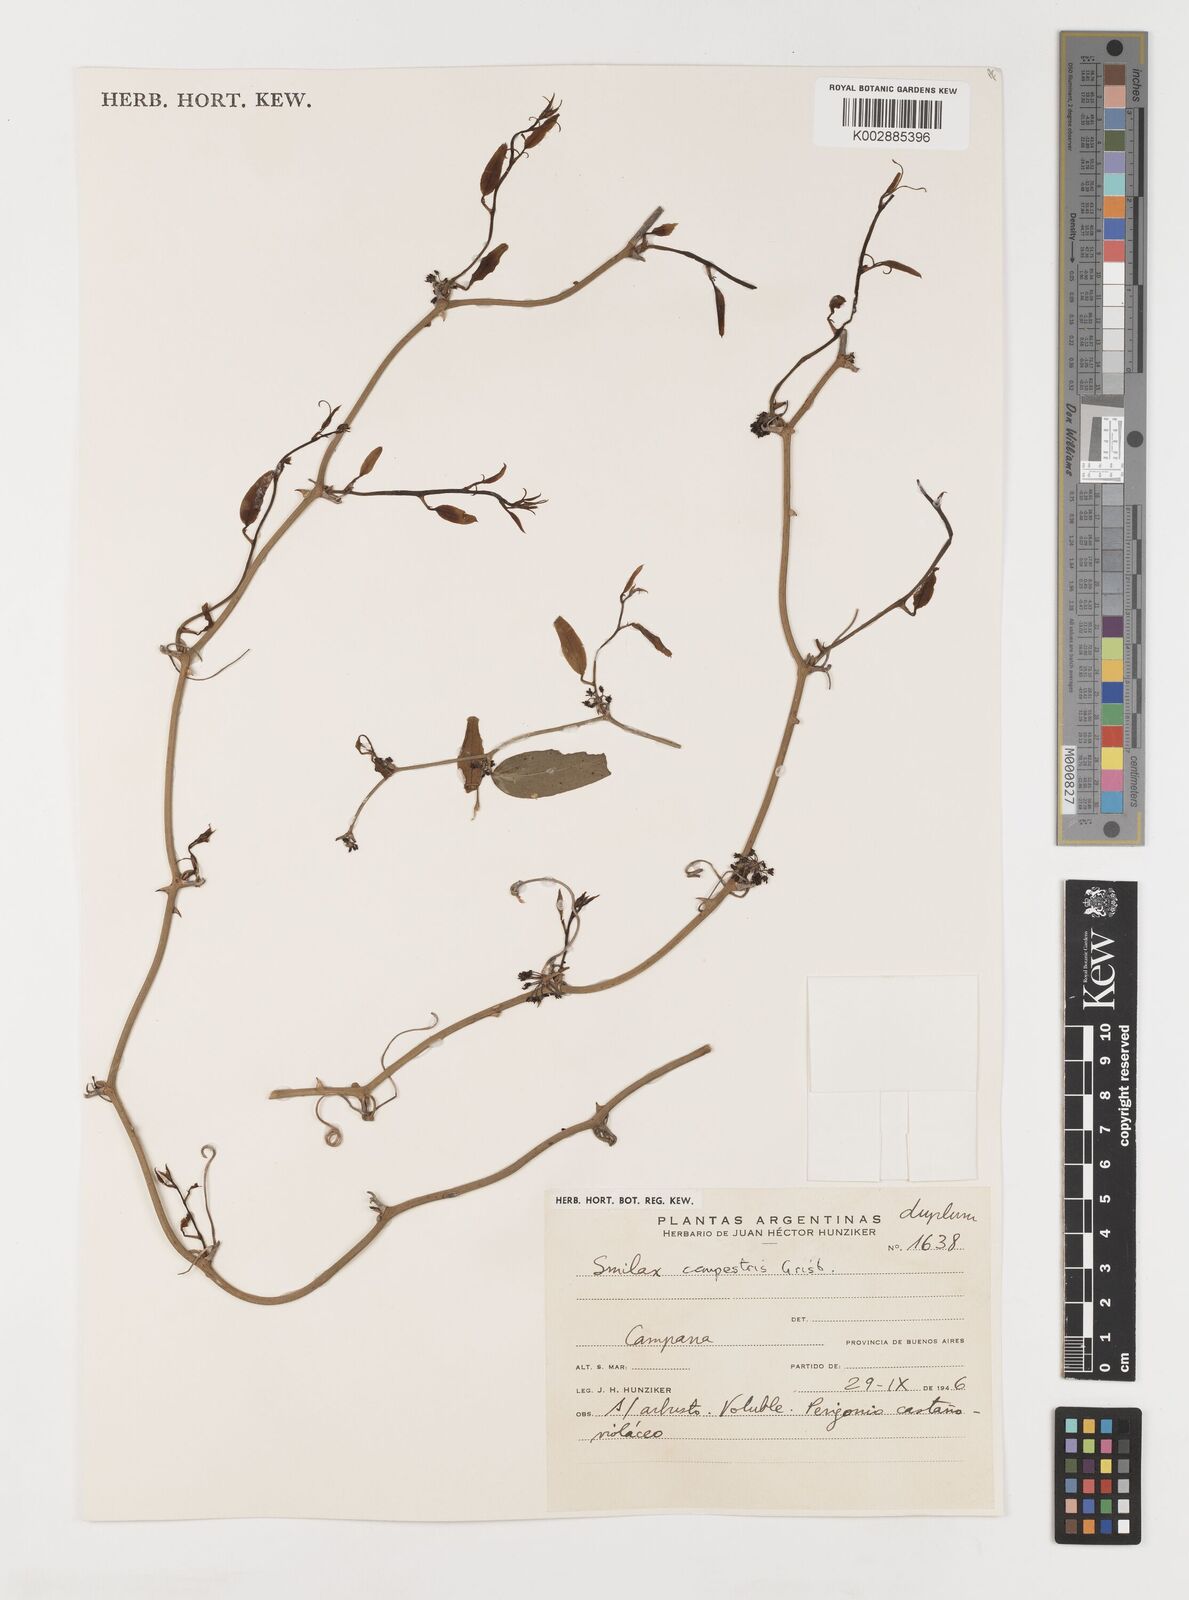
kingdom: Plantae
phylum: Tracheophyta
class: Liliopsida
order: Liliales
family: Smilacaceae
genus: Smilax
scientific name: Smilax campestris
